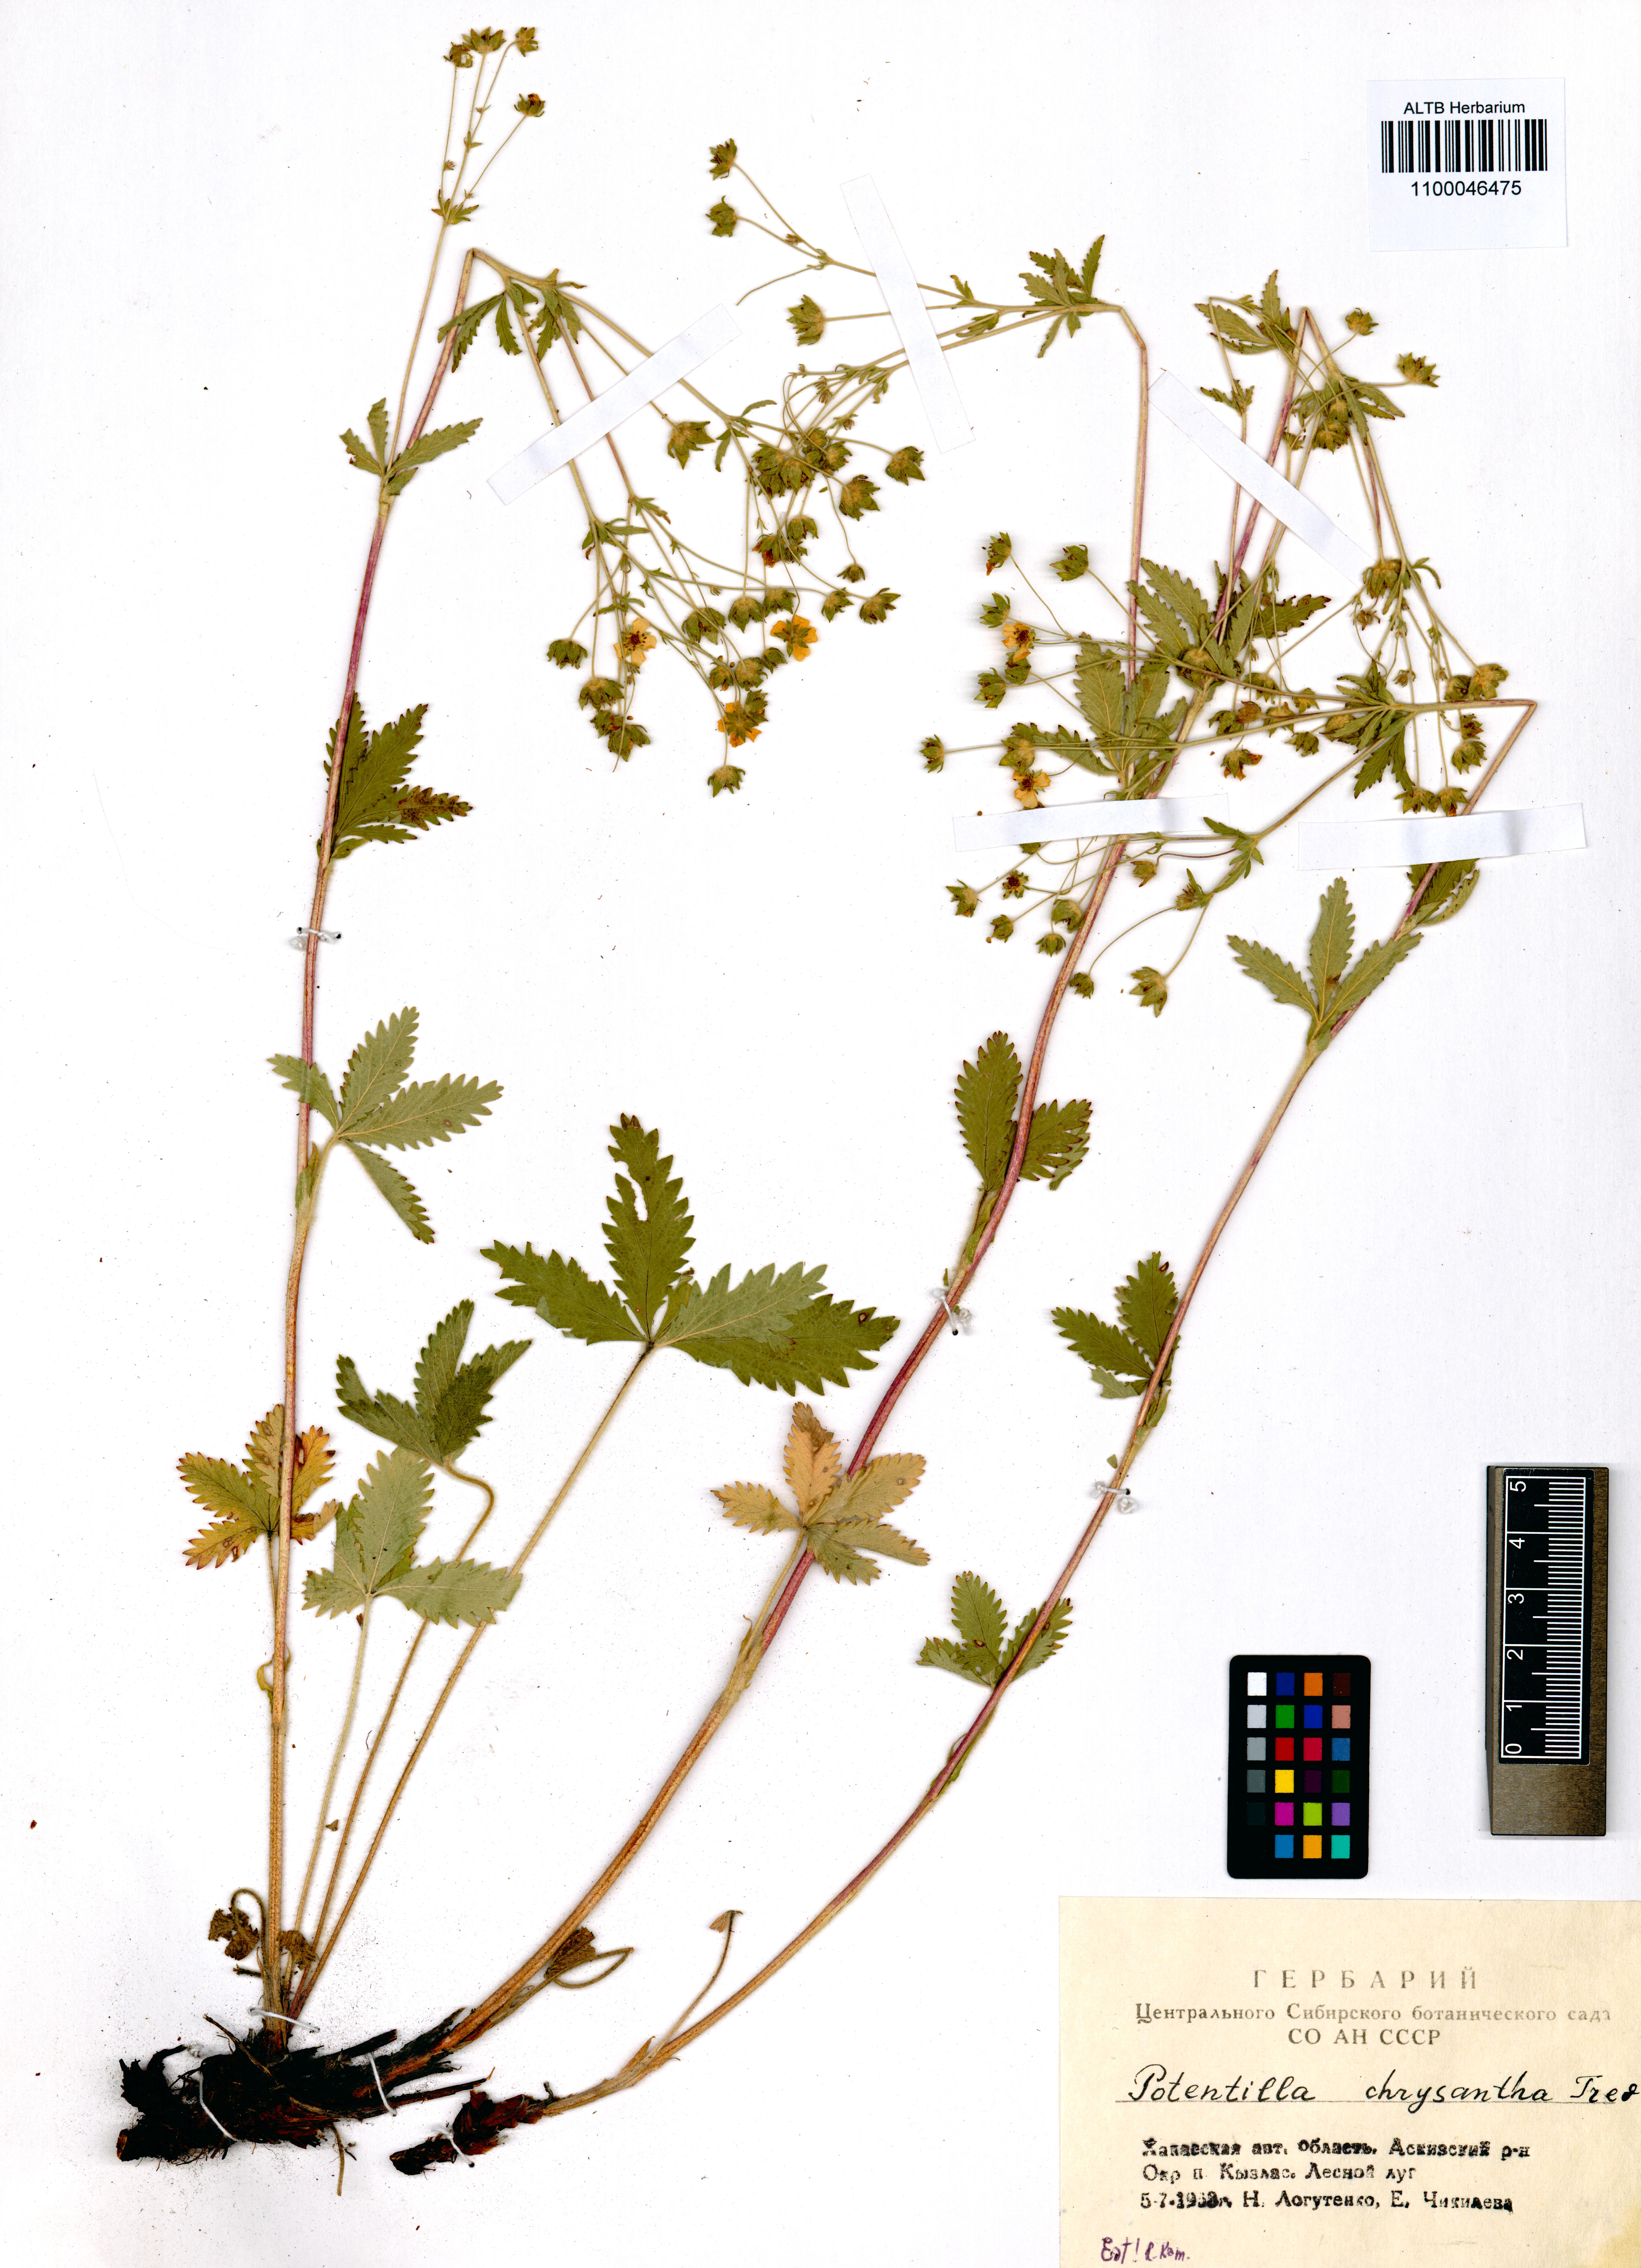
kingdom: Plantae
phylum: Tracheophyta
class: Magnoliopsida
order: Rosales
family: Rosaceae
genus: Potentilla
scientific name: Potentilla chrysantha
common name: Thuringian cinquefoil
